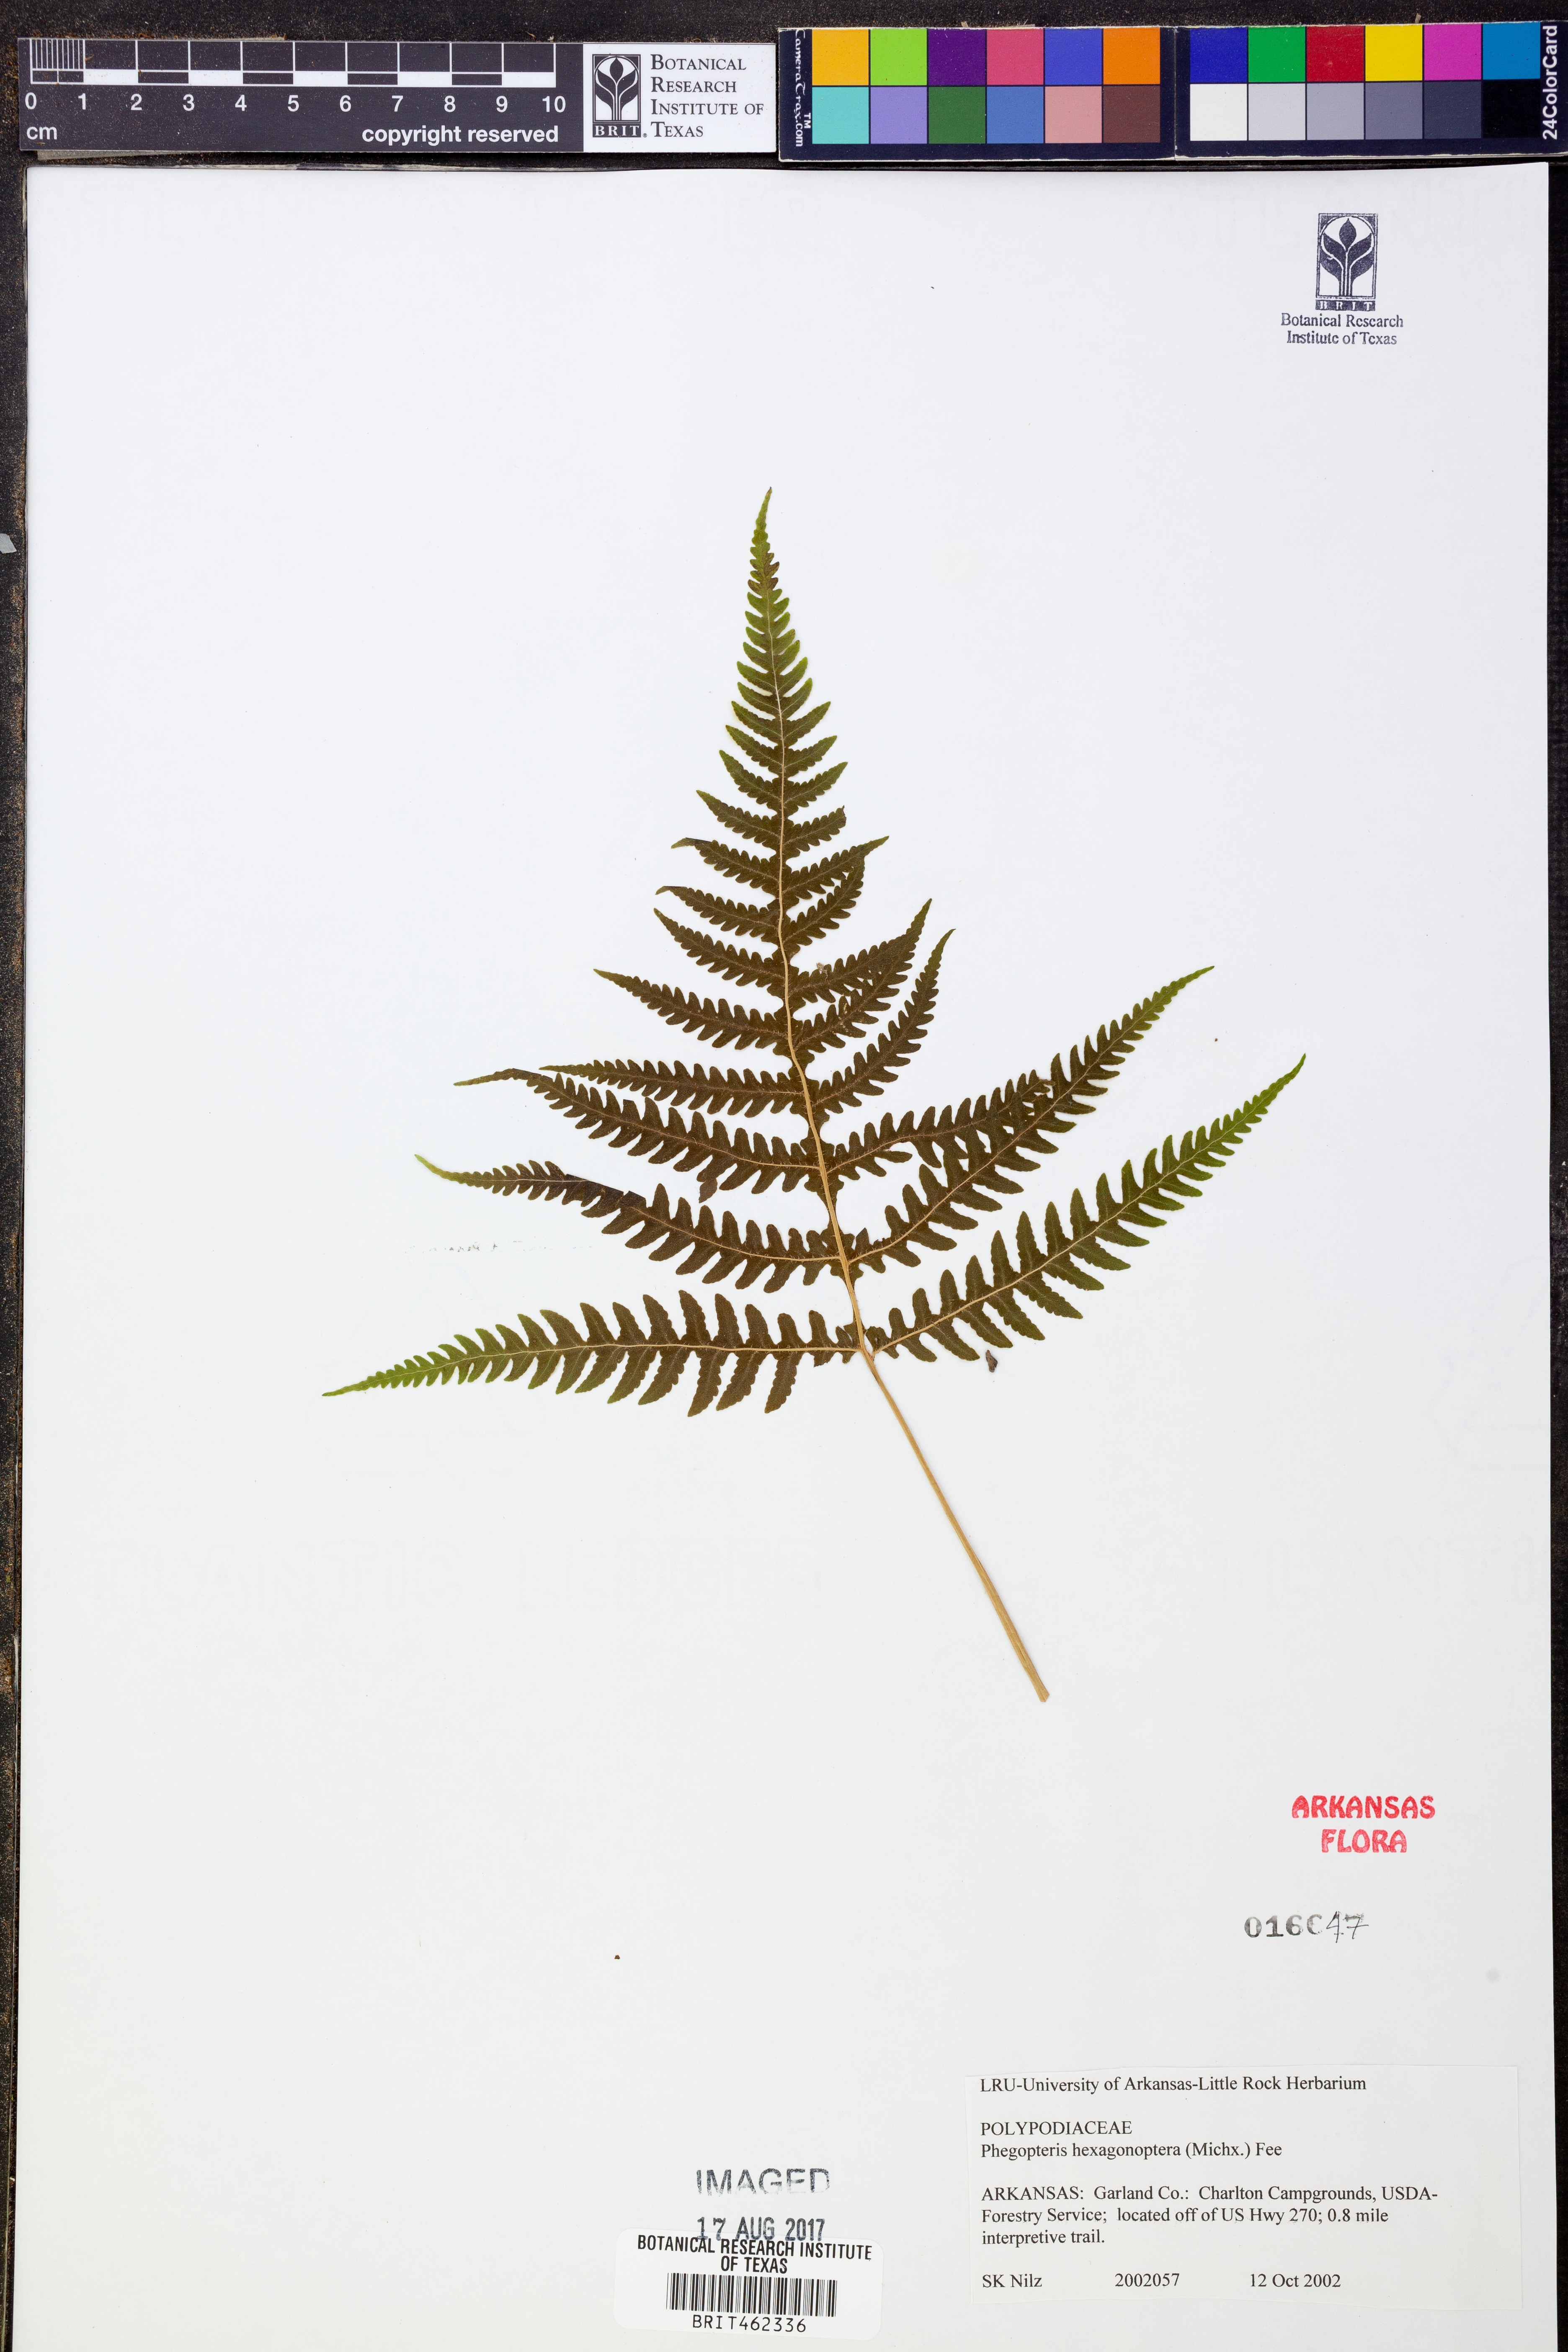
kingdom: Plantae
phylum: Tracheophyta
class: Polypodiopsida
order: Polypodiales
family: Thelypteridaceae
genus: Phegopteris
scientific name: Phegopteris hexagonoptera
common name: Broad beech fern
